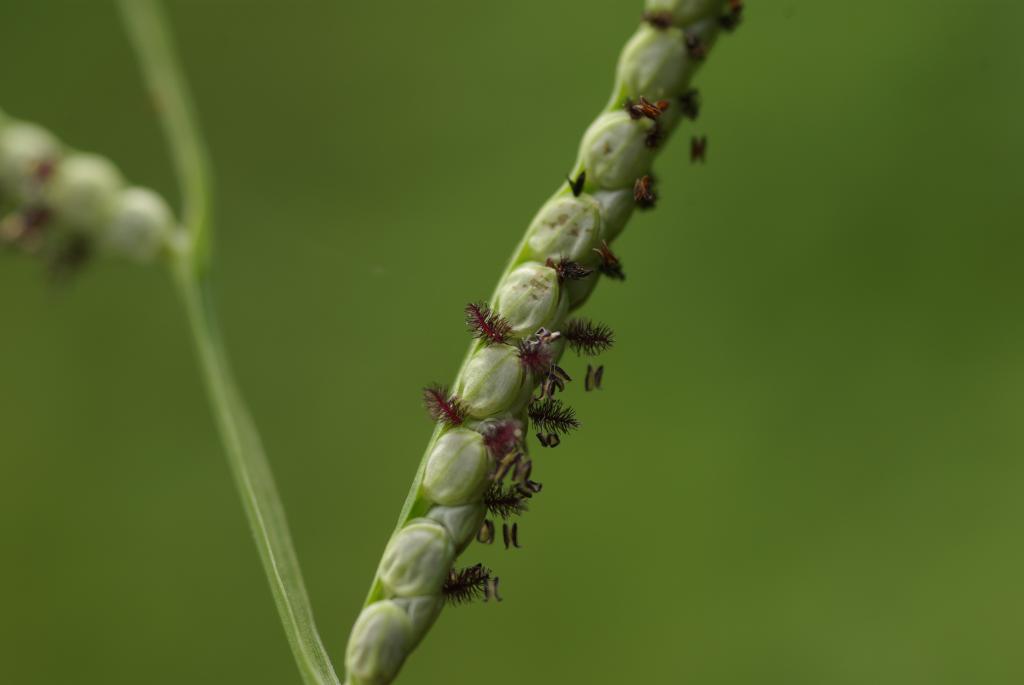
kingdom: Plantae
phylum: Tracheophyta
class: Liliopsida
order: Poales
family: Poaceae
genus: Paspalum
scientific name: Paspalum orbiculare
